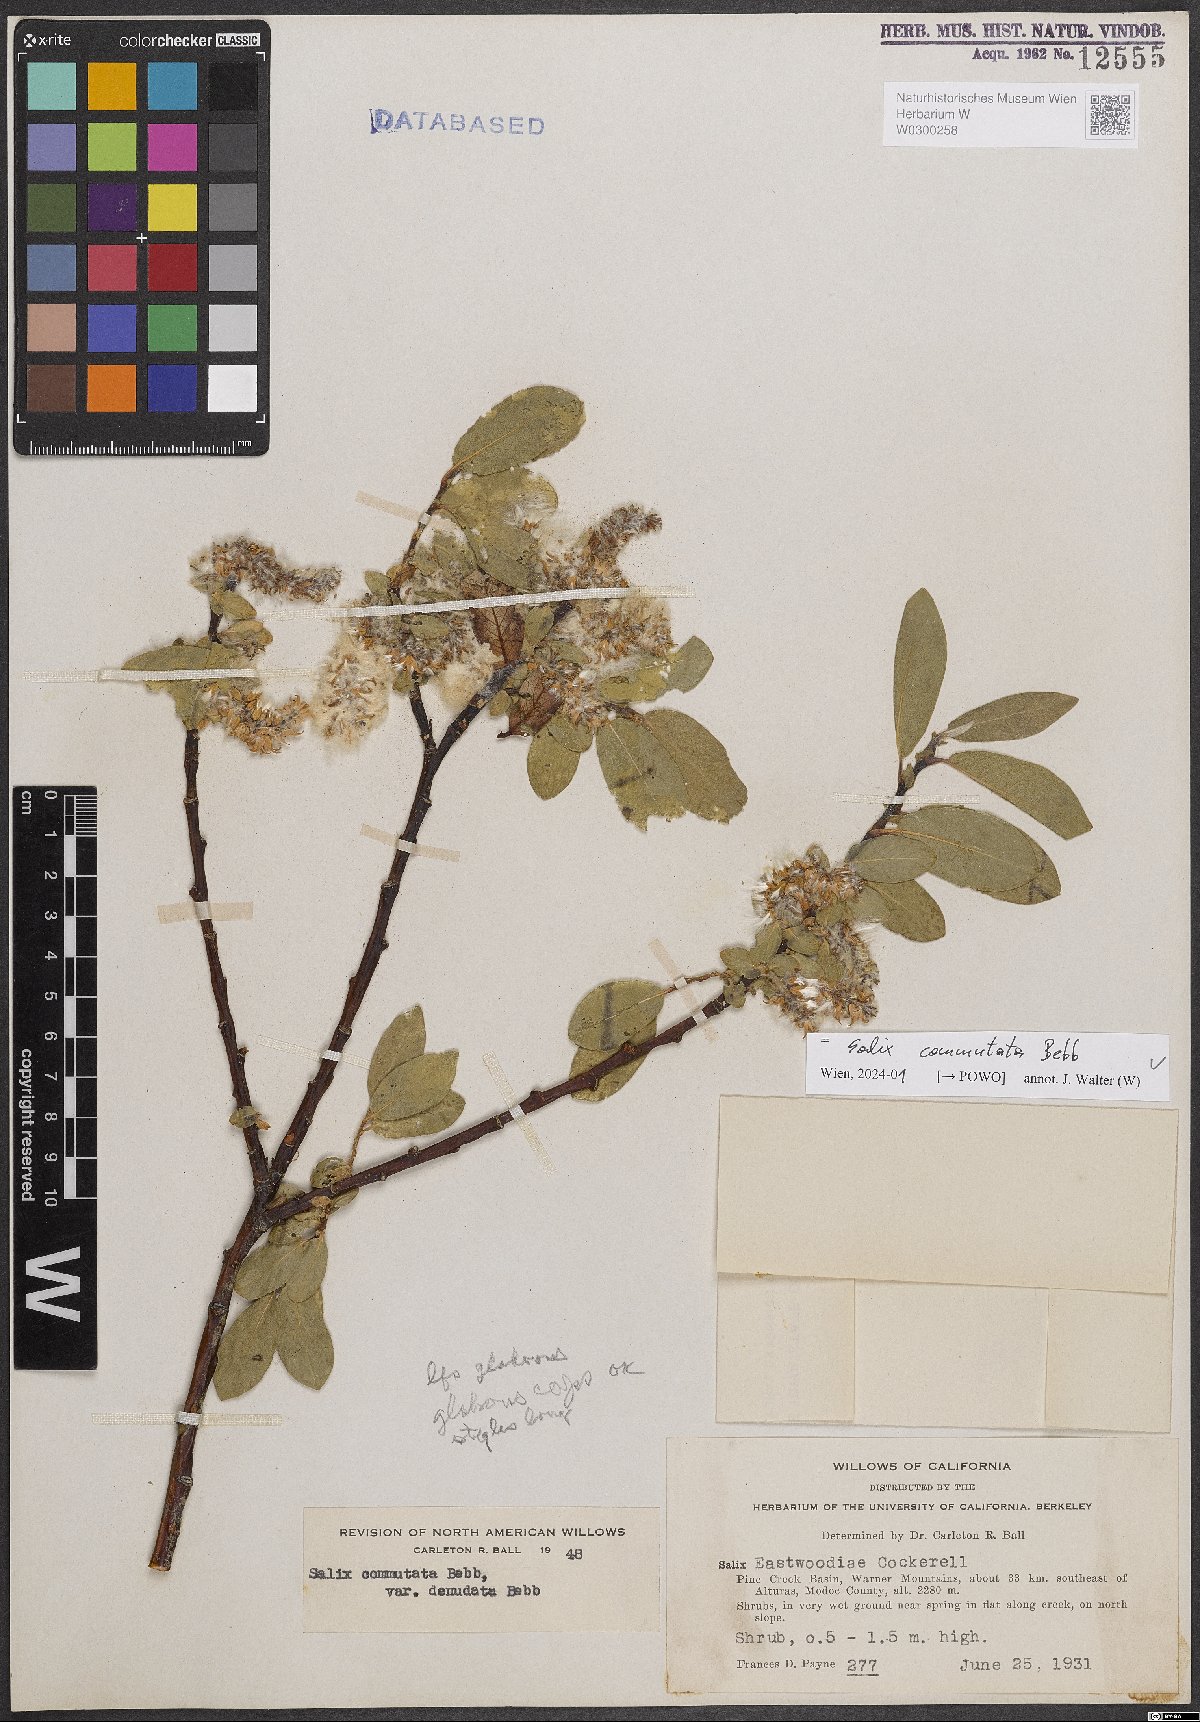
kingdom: Plantae
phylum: Tracheophyta
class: Magnoliopsida
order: Malpighiales
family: Salicaceae
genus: Salix
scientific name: Salix commutata
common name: Under-green willow
